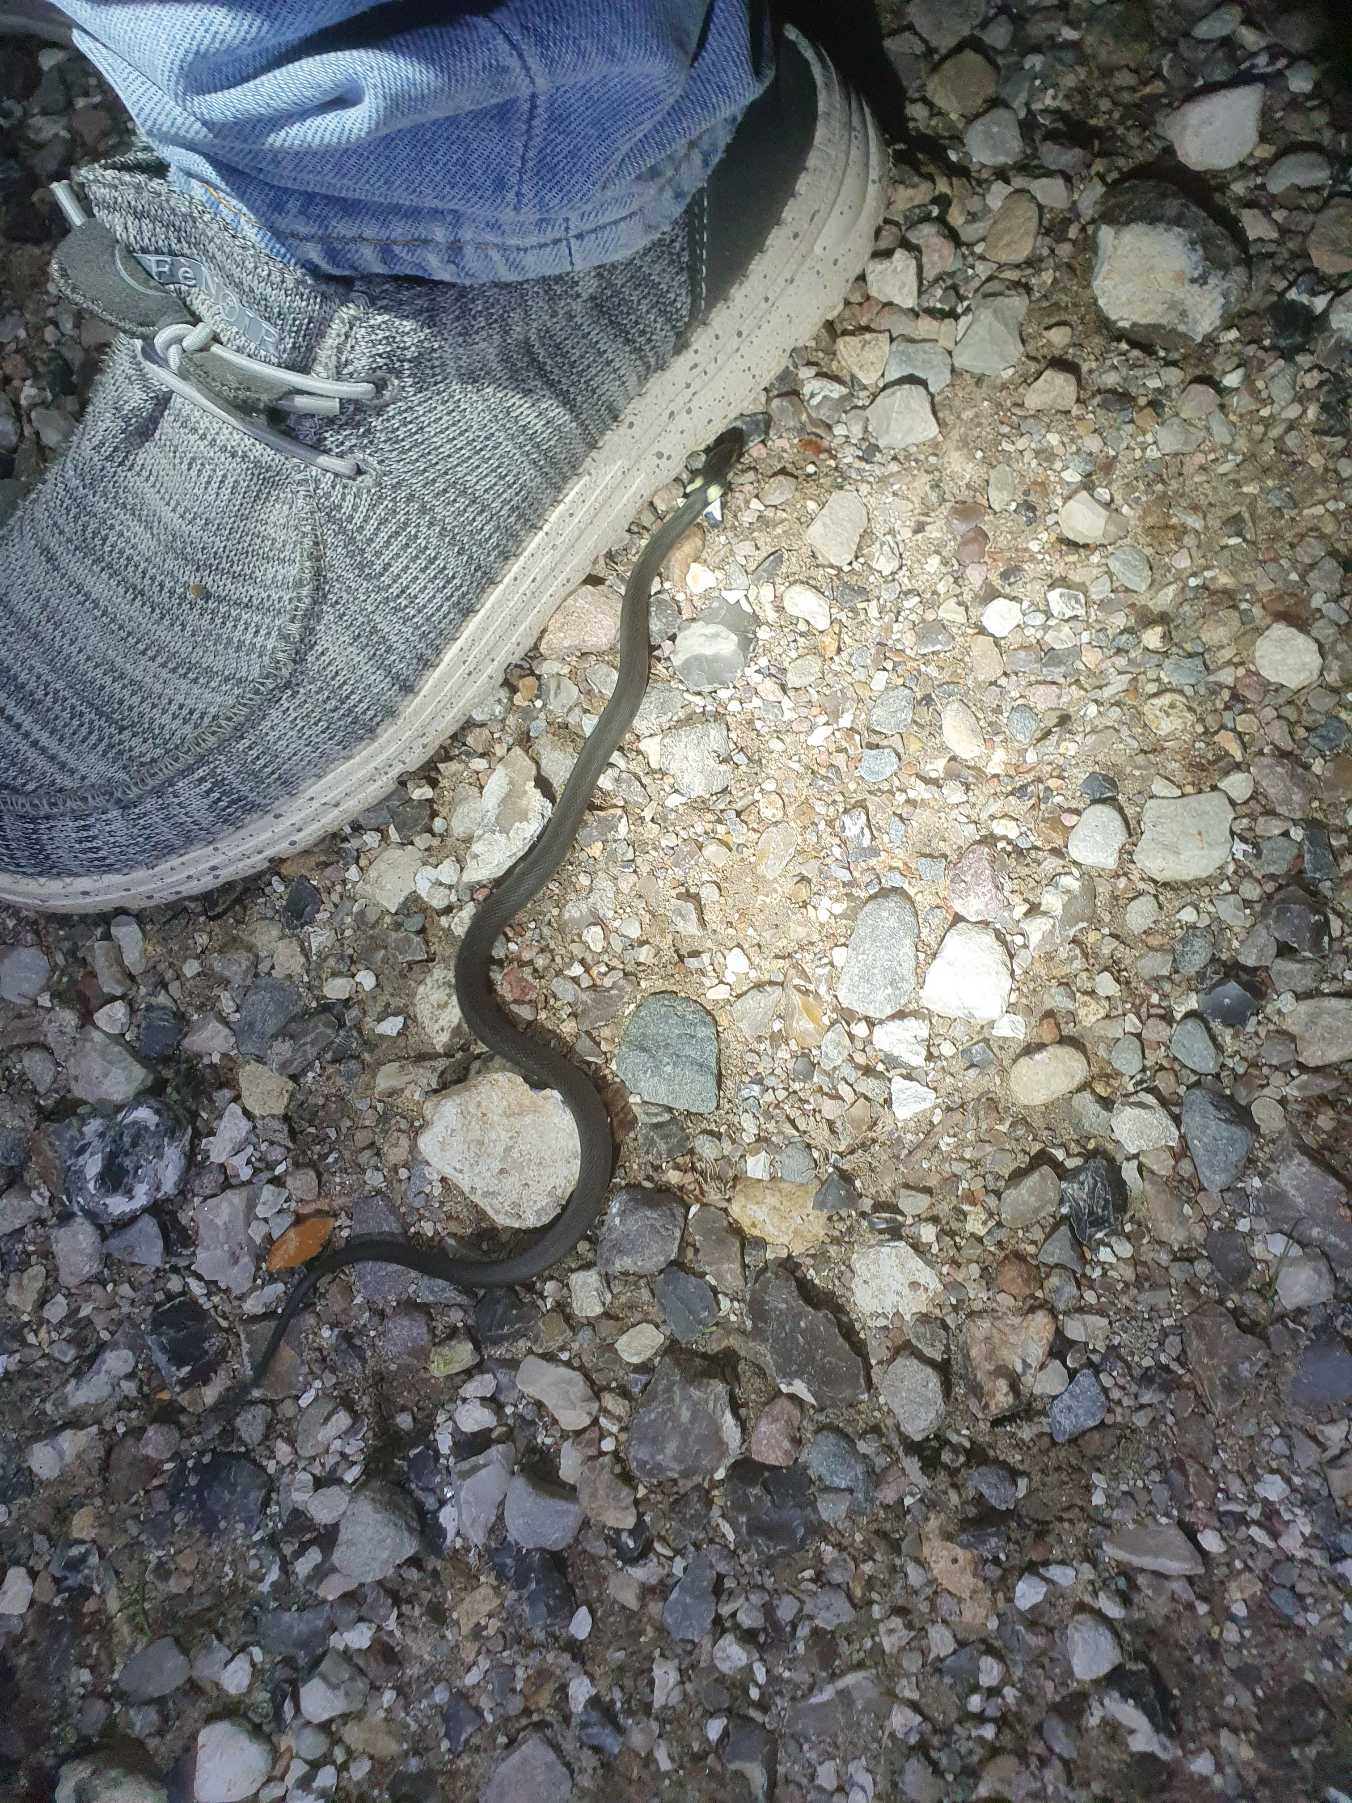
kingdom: Animalia
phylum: Chordata
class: Squamata
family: Colubridae
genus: Natrix
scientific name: Natrix natrix
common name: Snog
